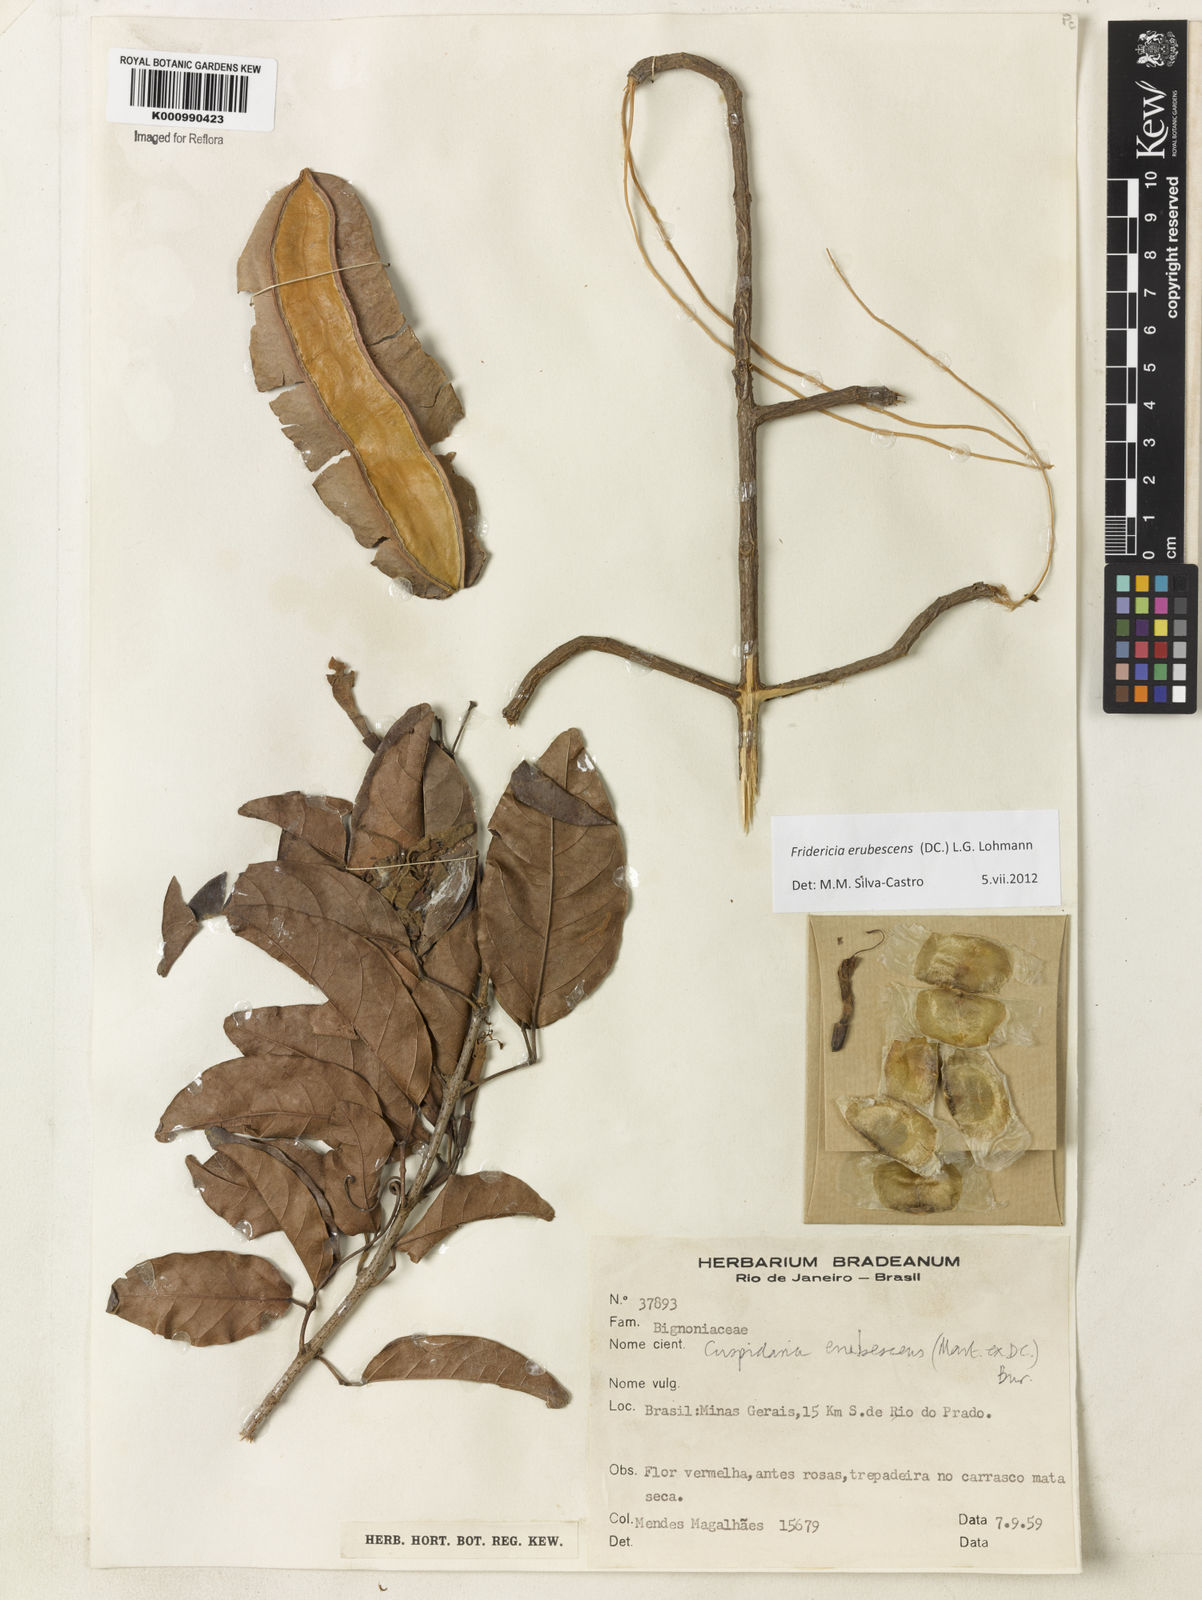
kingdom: Plantae
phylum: Tracheophyta
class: Magnoliopsida
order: Lamiales
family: Bignoniaceae
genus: Fridericia
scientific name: Fridericia erubescens
